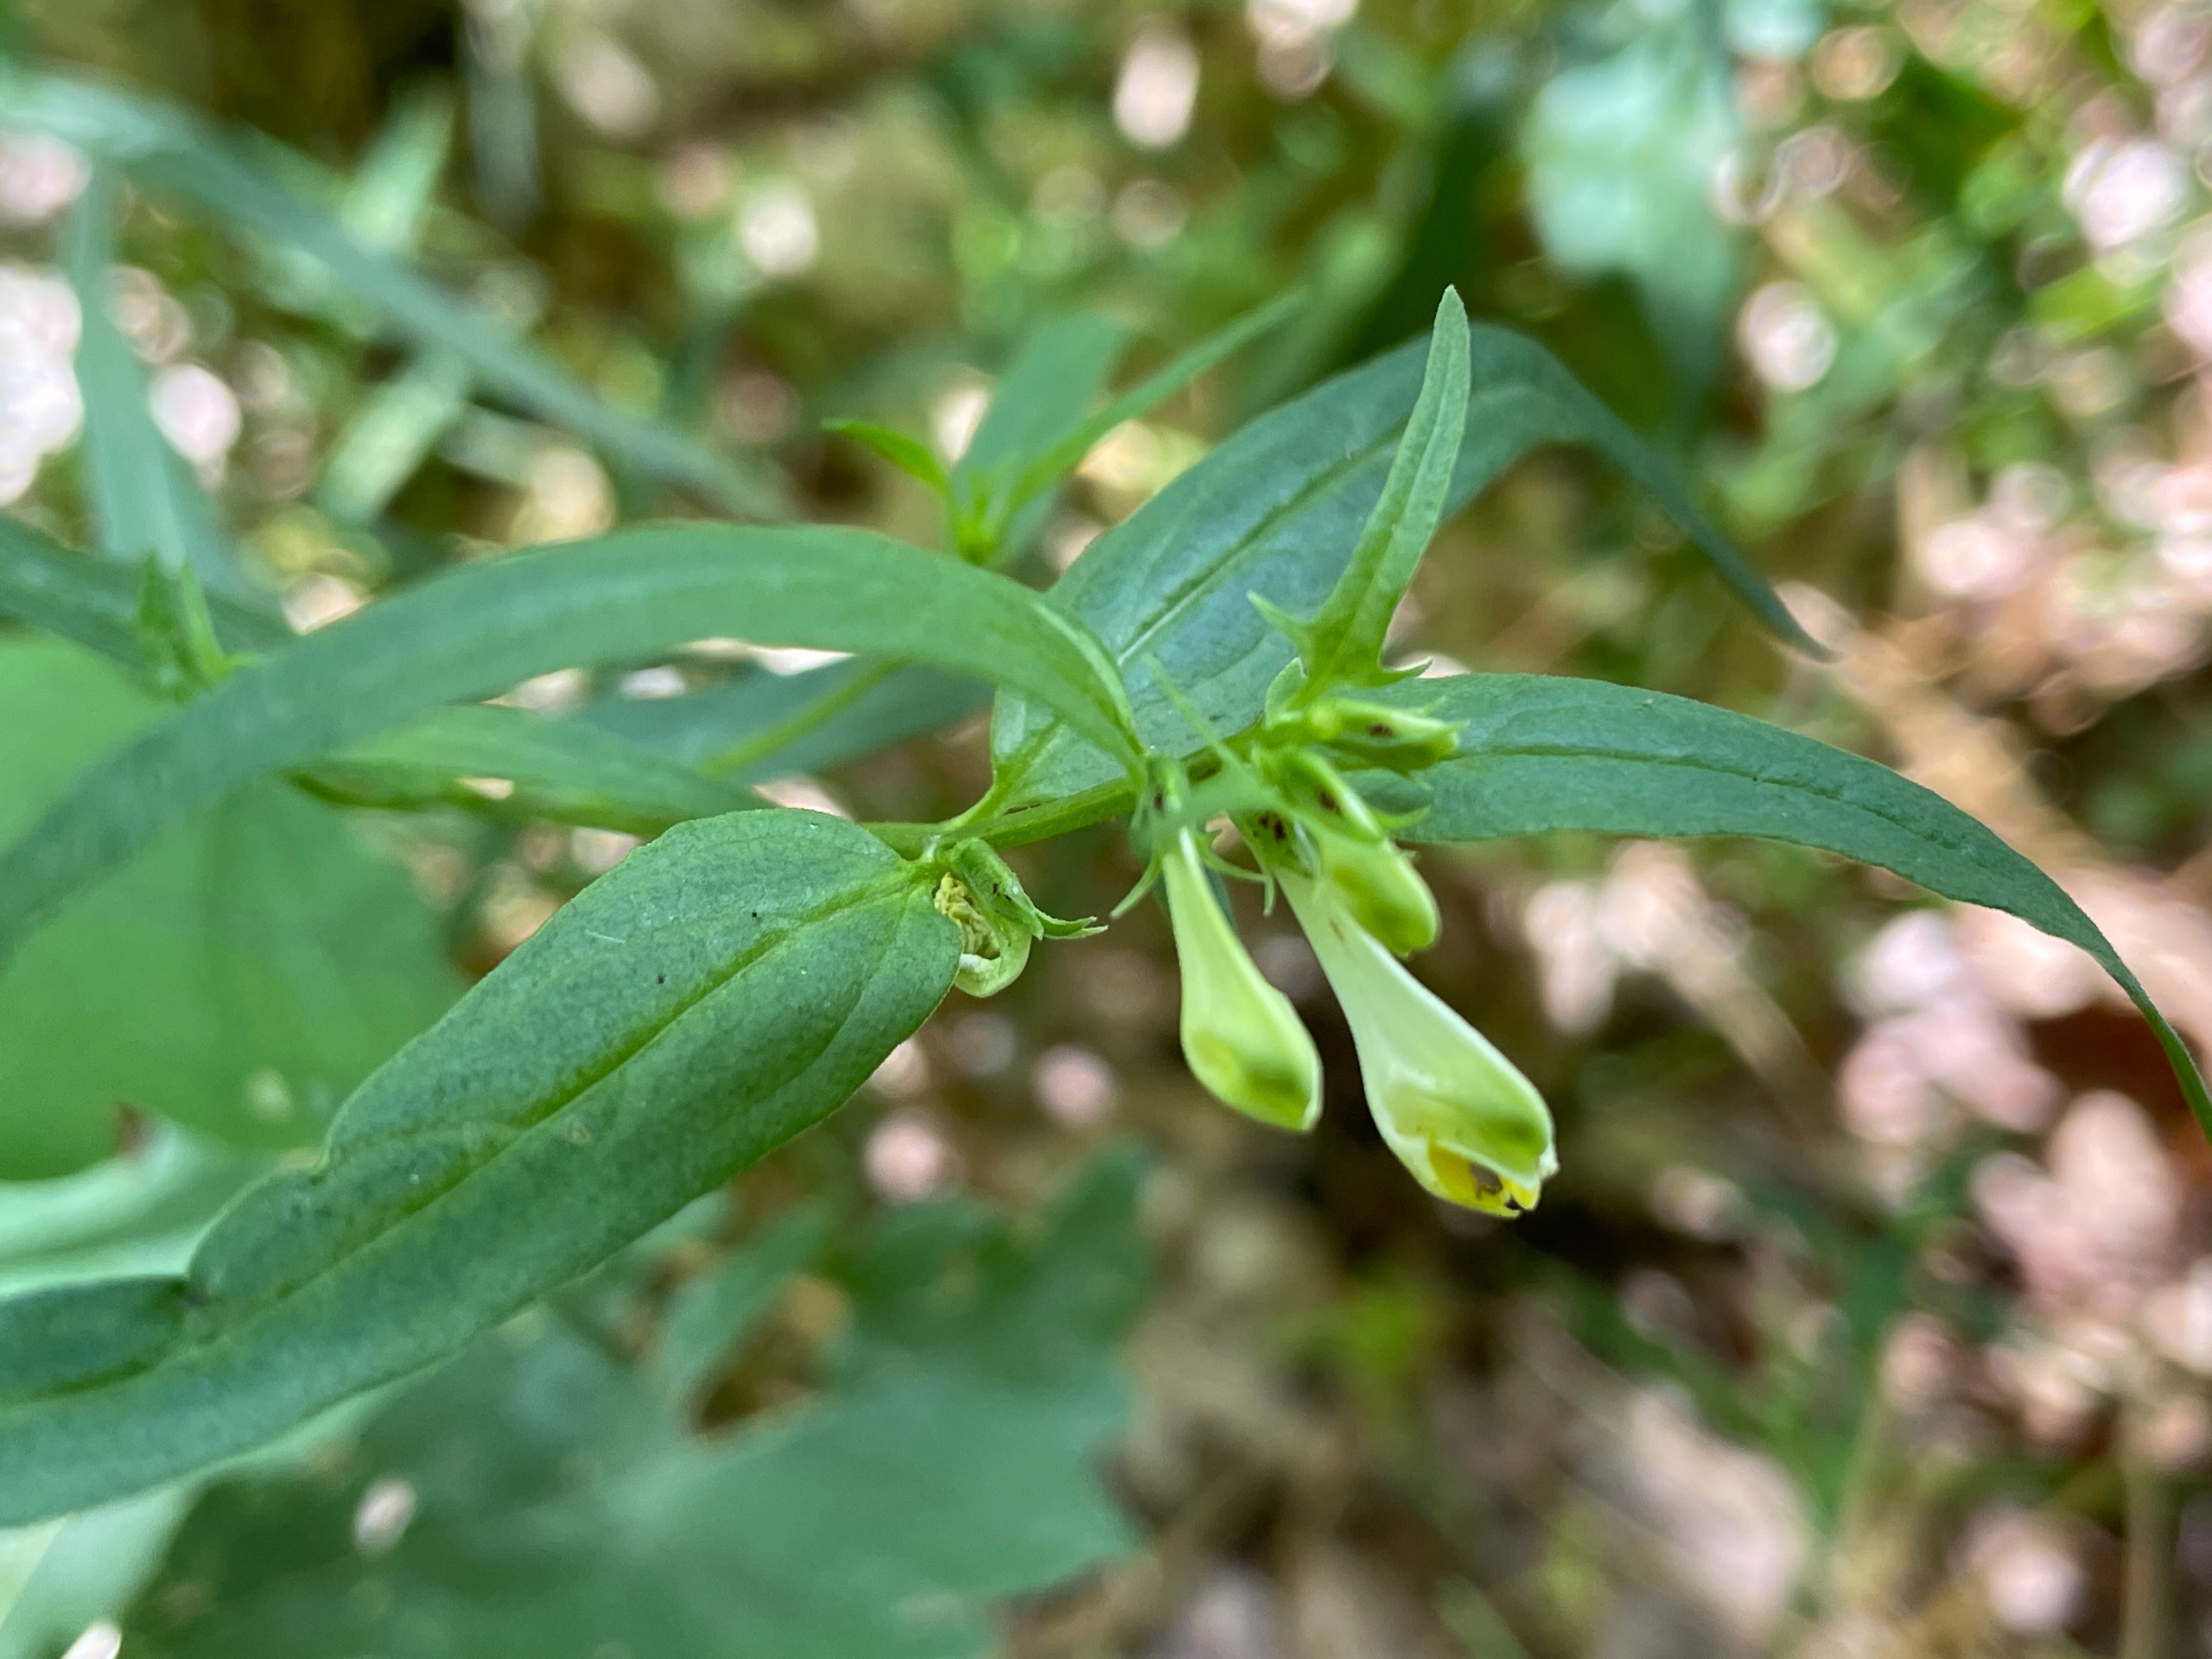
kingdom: Plantae
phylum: Tracheophyta
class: Magnoliopsida
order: Lamiales
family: Orobanchaceae
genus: Melampyrum
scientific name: Melampyrum pratense
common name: Almindelig kohvede
